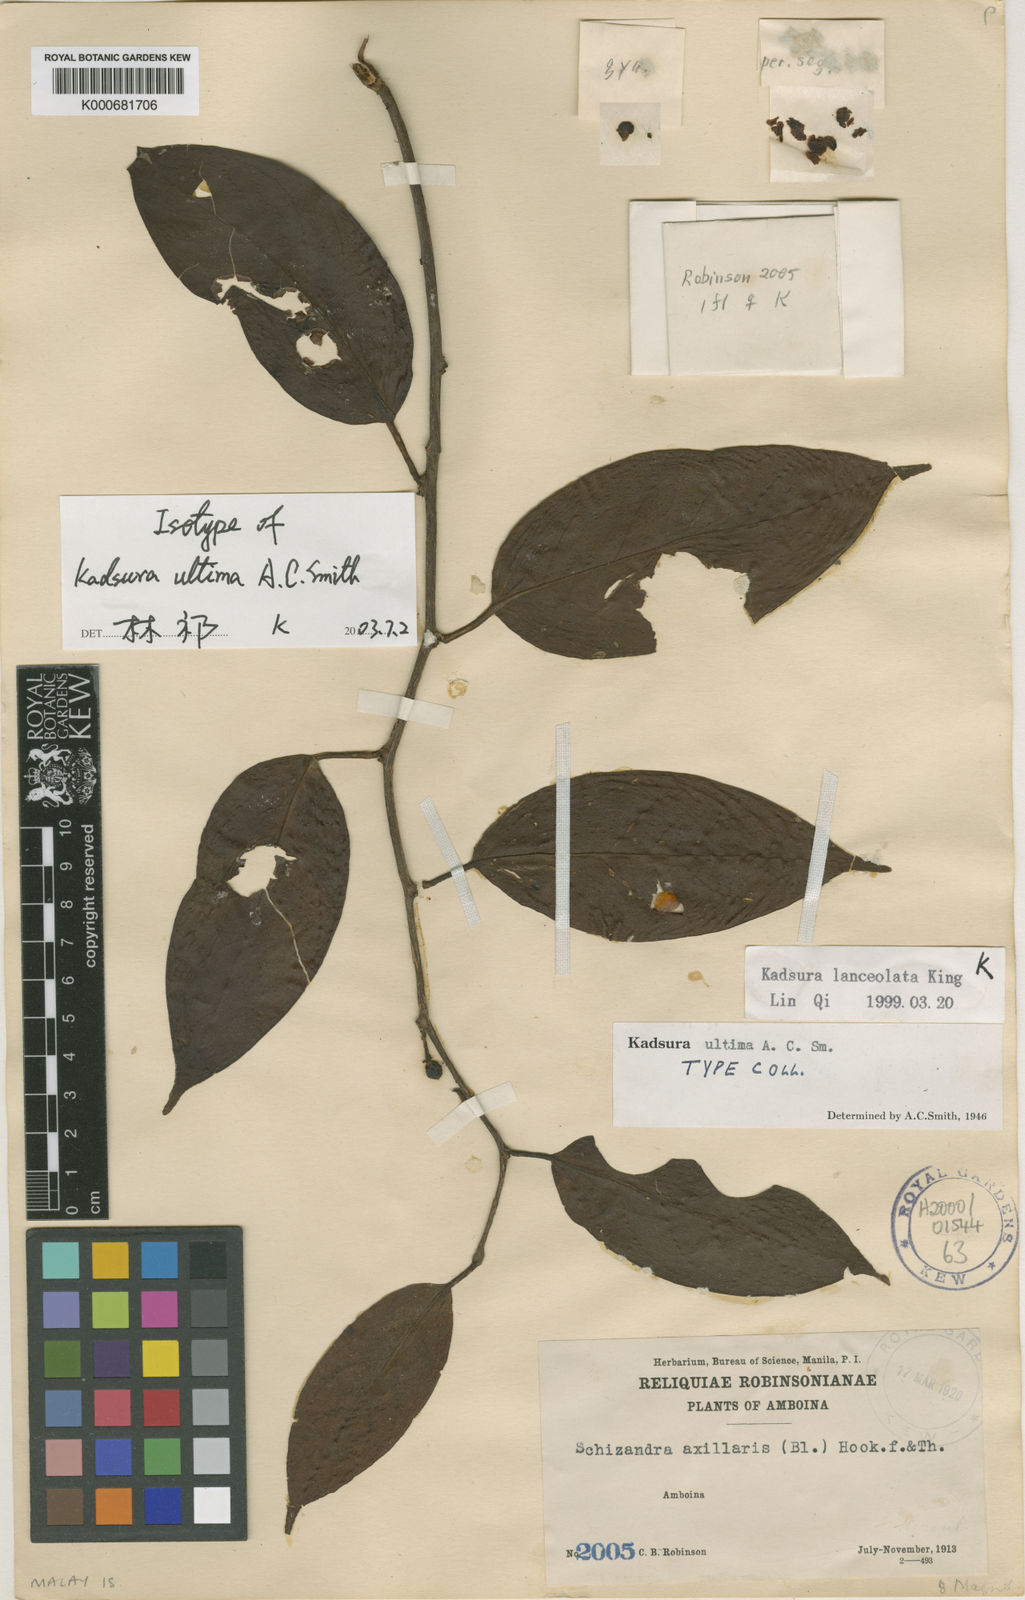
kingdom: Plantae
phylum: Tracheophyta
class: Magnoliopsida
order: Austrobaileyales
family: Schisandraceae
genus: Kadsura
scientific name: Kadsura lanceolata
